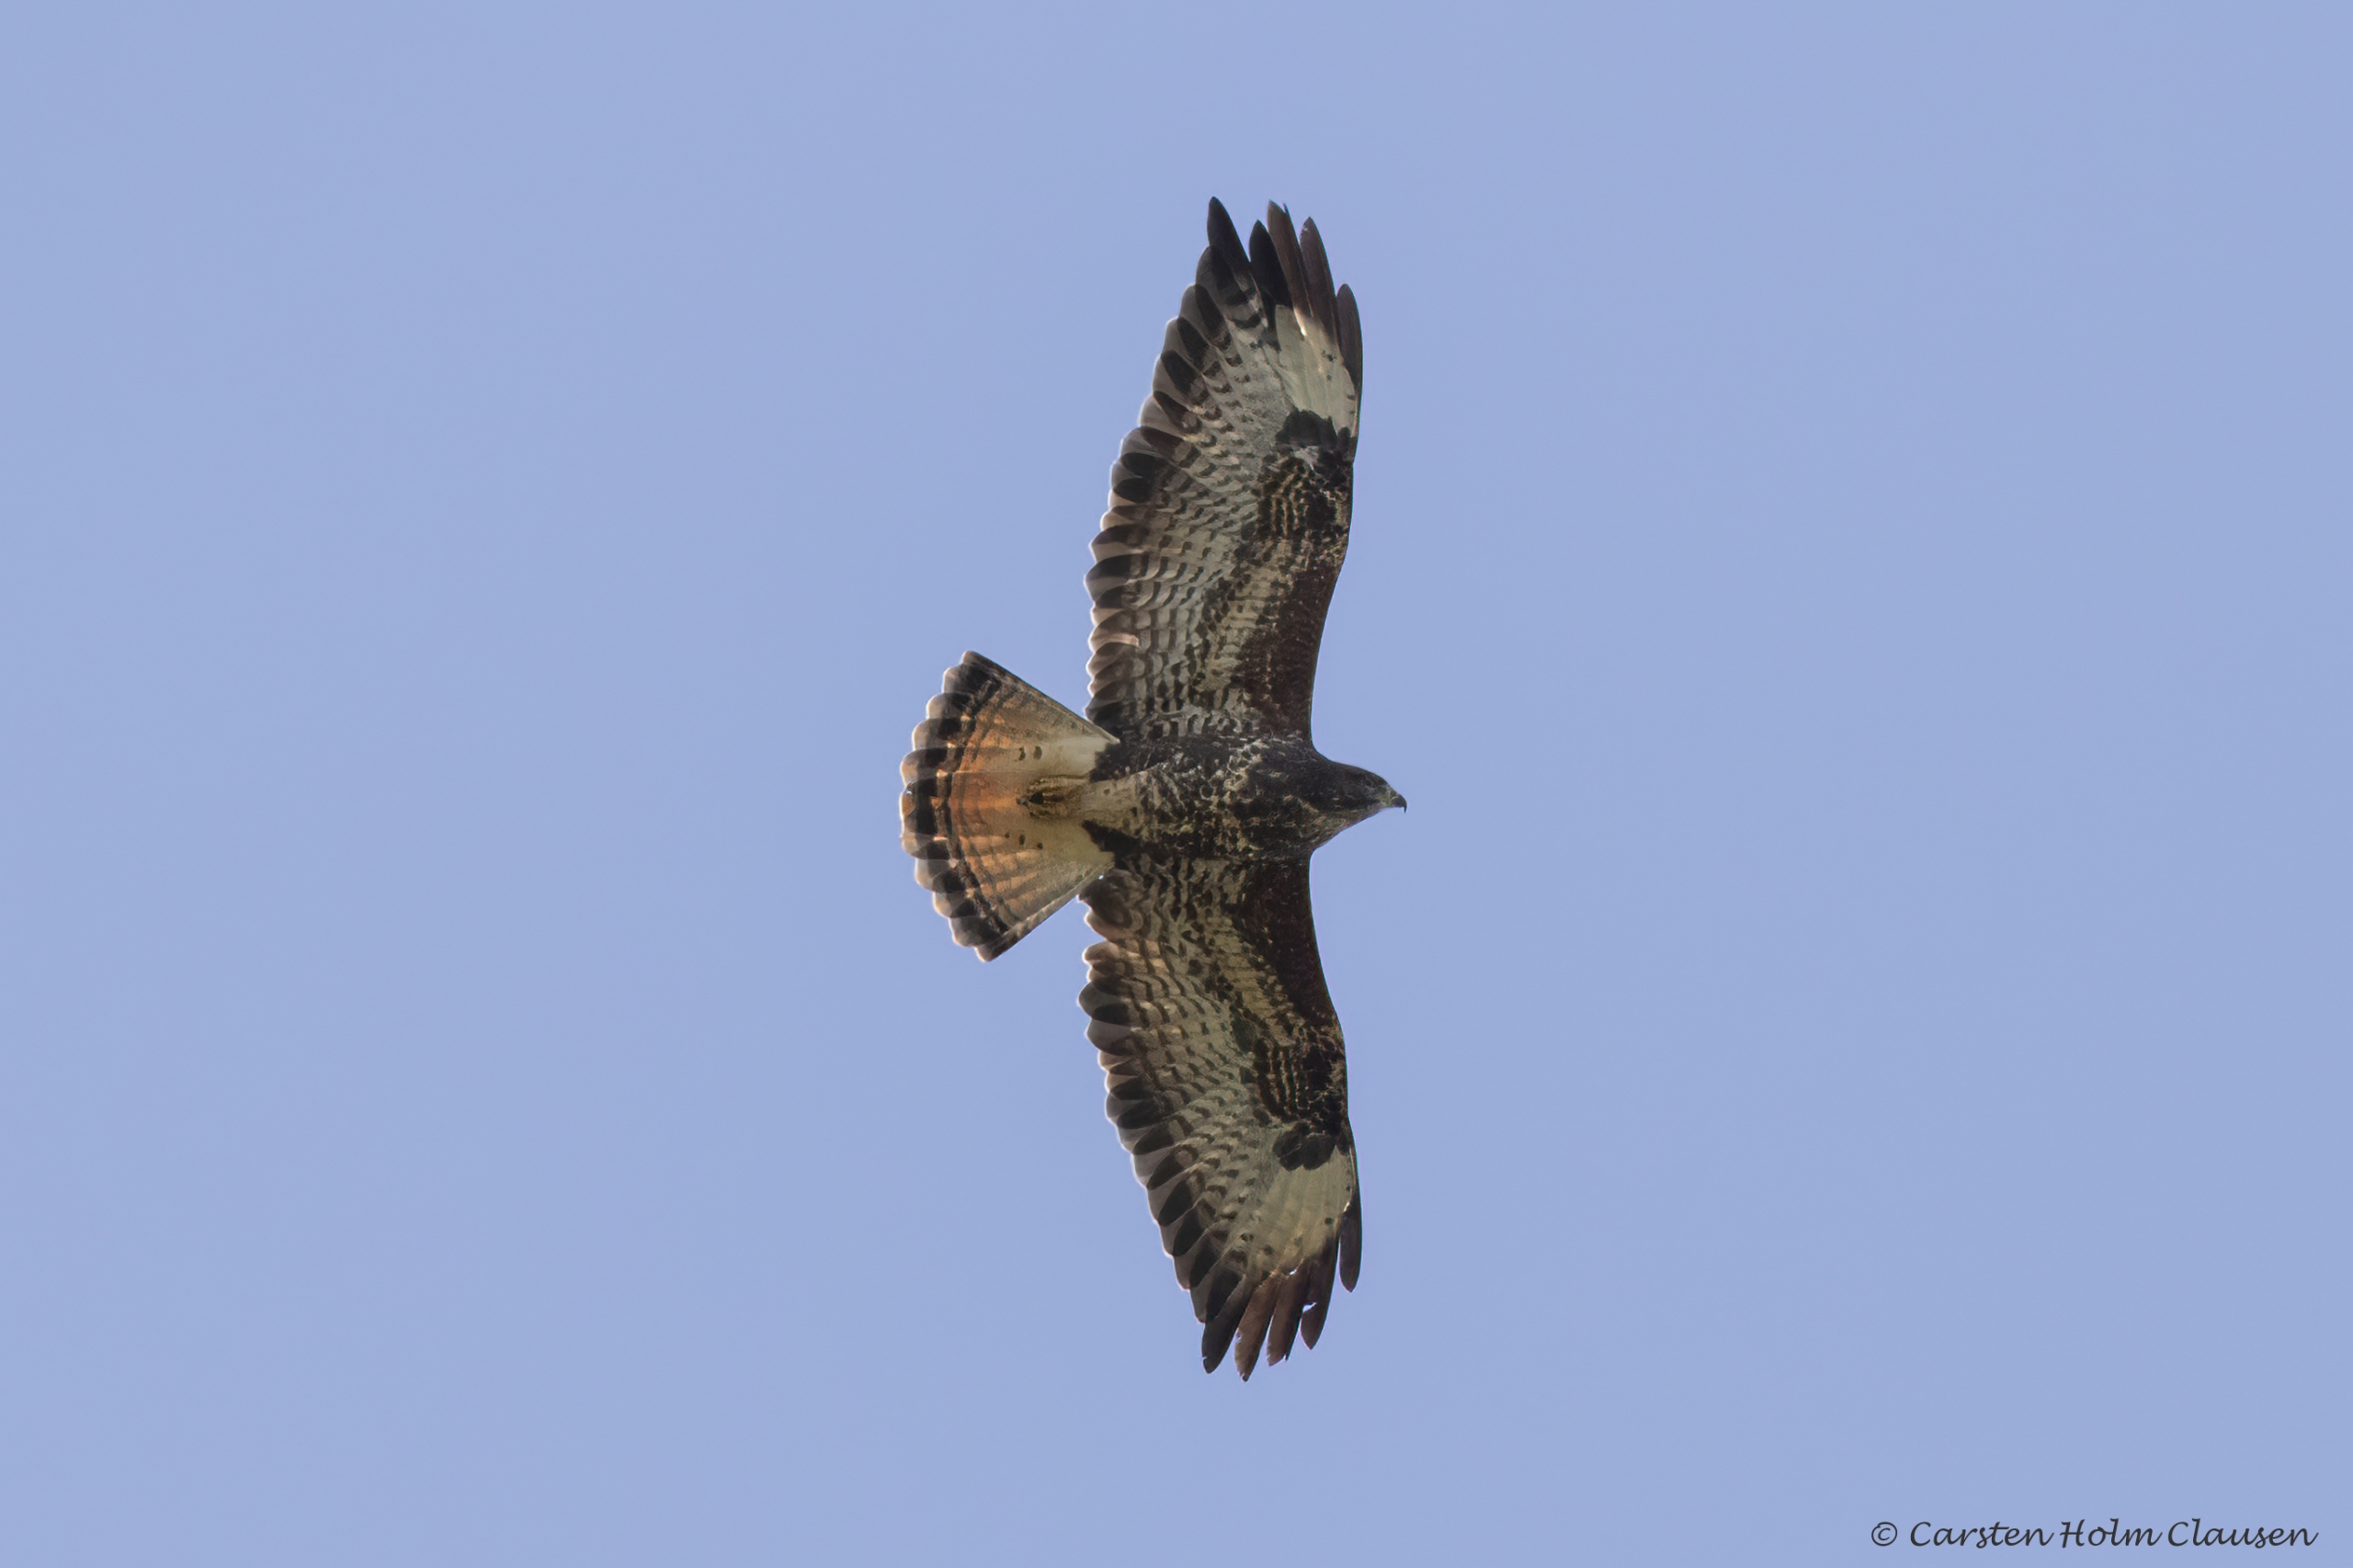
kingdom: Animalia
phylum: Chordata
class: Aves
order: Accipitriformes
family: Accipitridae
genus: Buteo
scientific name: Buteo buteo
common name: Musvåge
